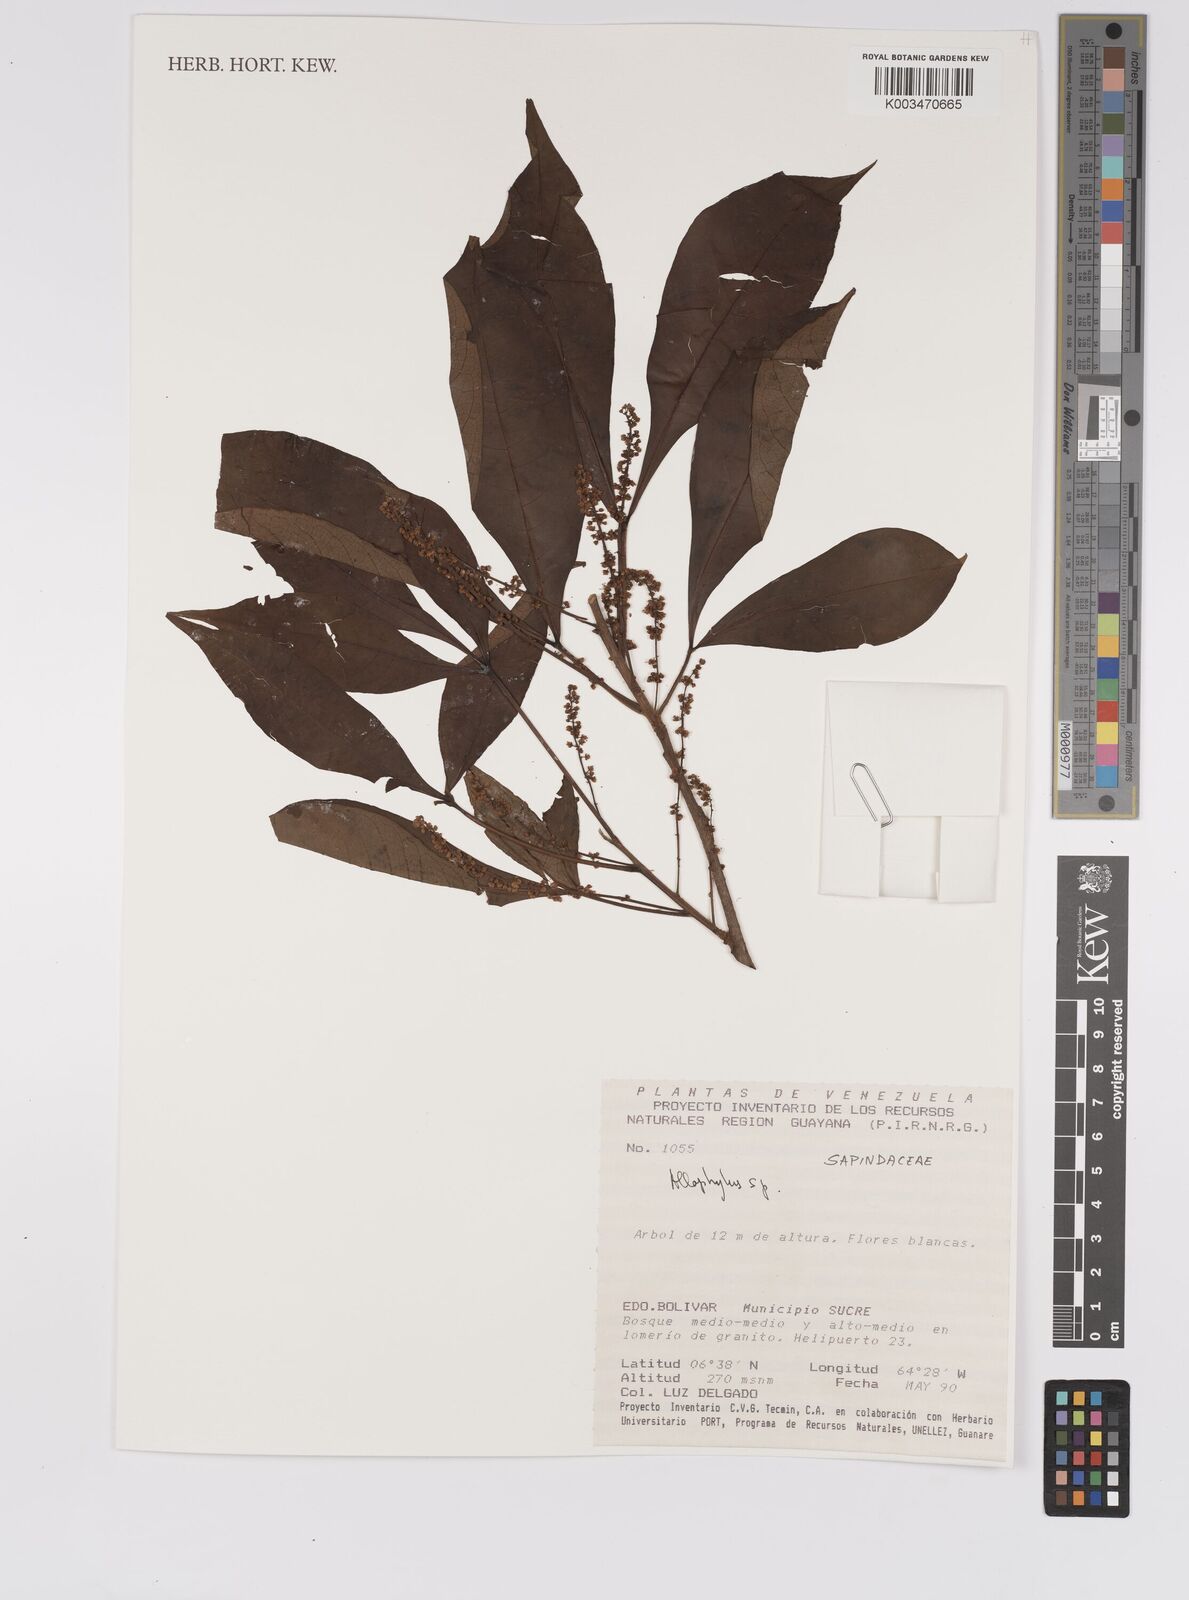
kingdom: Plantae
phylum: Tracheophyta
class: Magnoliopsida
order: Sapindales
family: Sapindaceae
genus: Allophylus
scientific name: Allophylus
